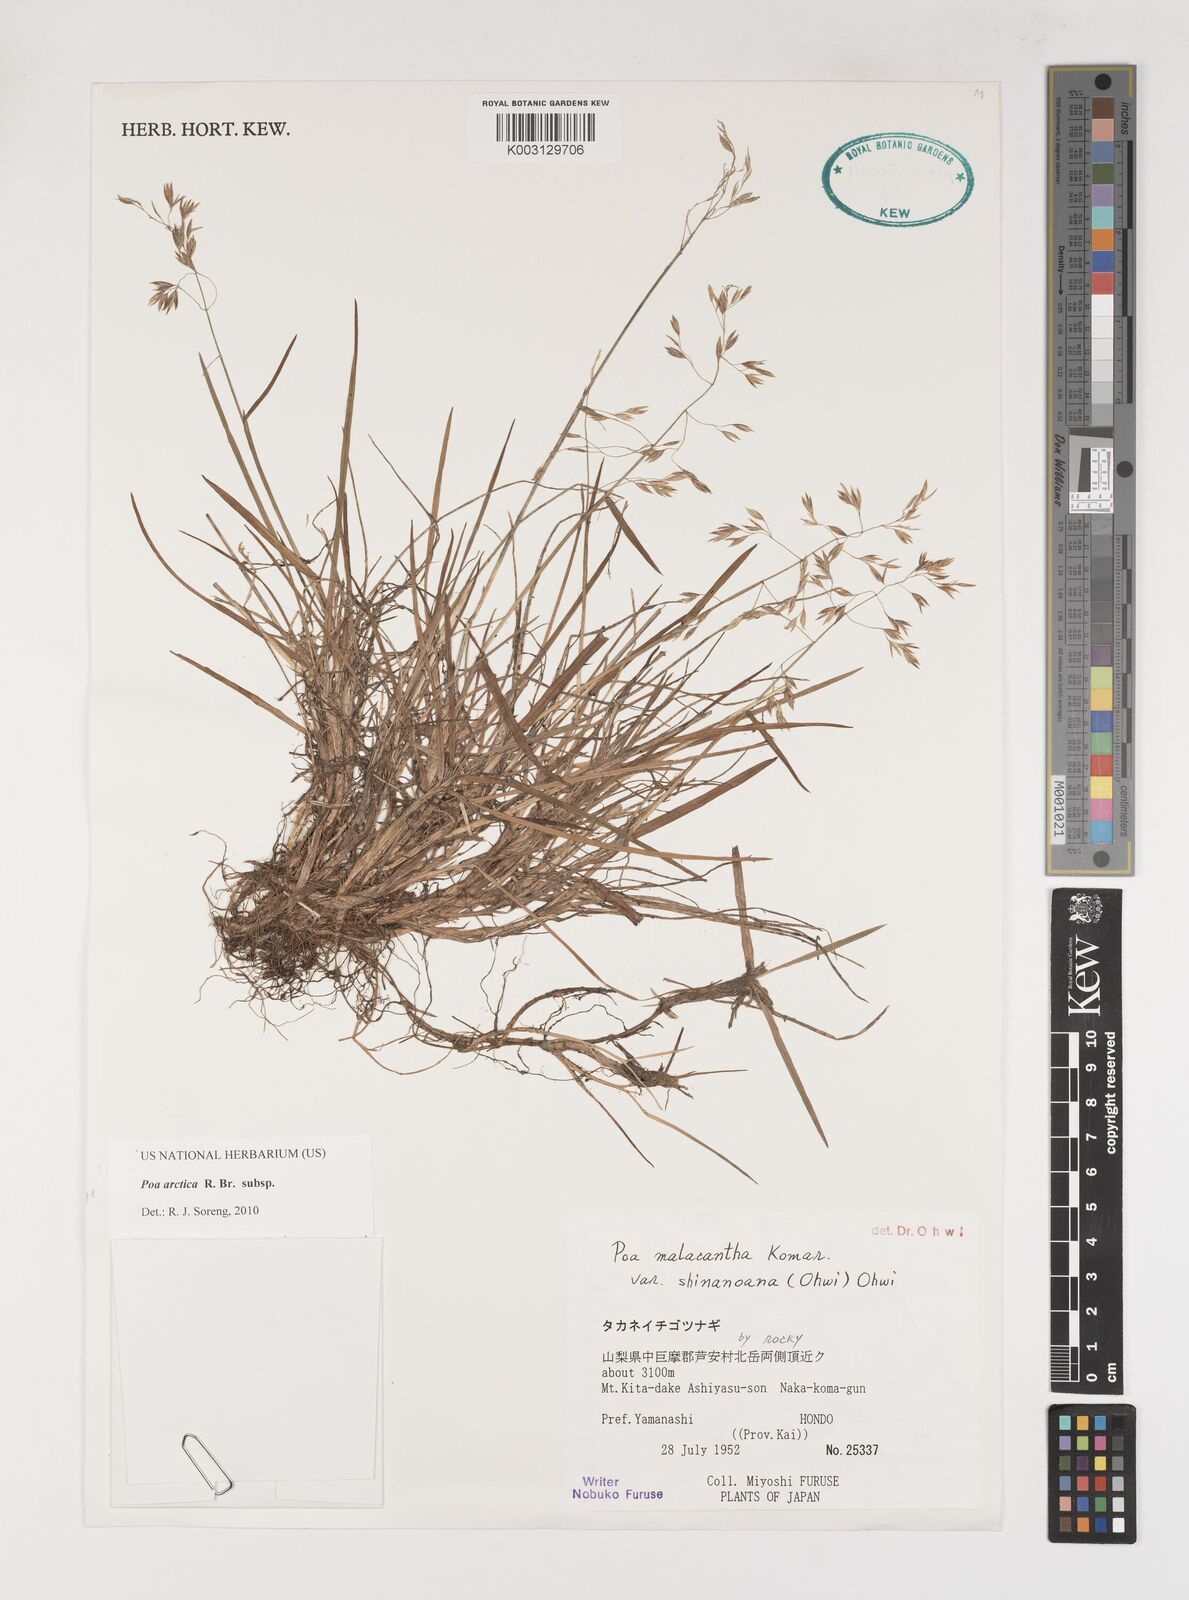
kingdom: Plantae
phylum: Tracheophyta
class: Liliopsida
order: Poales
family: Poaceae
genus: Poa
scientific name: Poa arctica
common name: Arctic bluegrass
